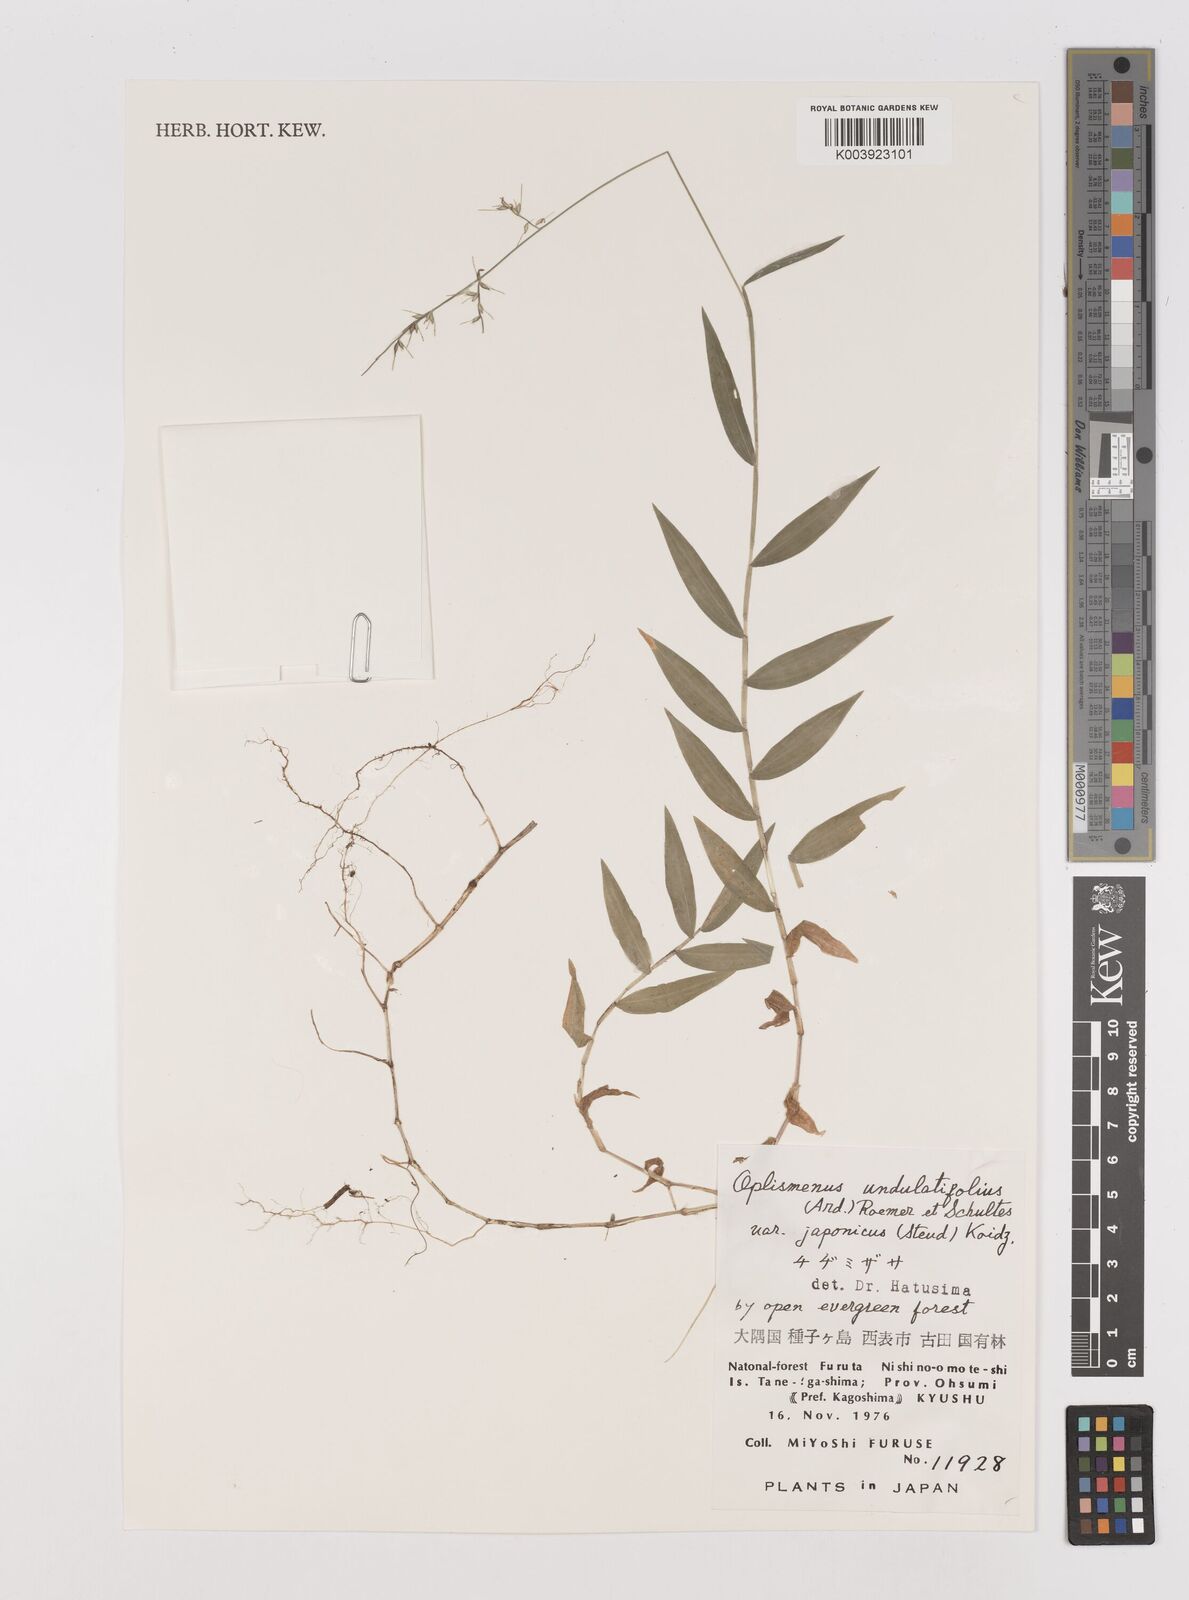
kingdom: Plantae
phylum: Tracheophyta
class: Liliopsida
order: Poales
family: Poaceae
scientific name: Poaceae
